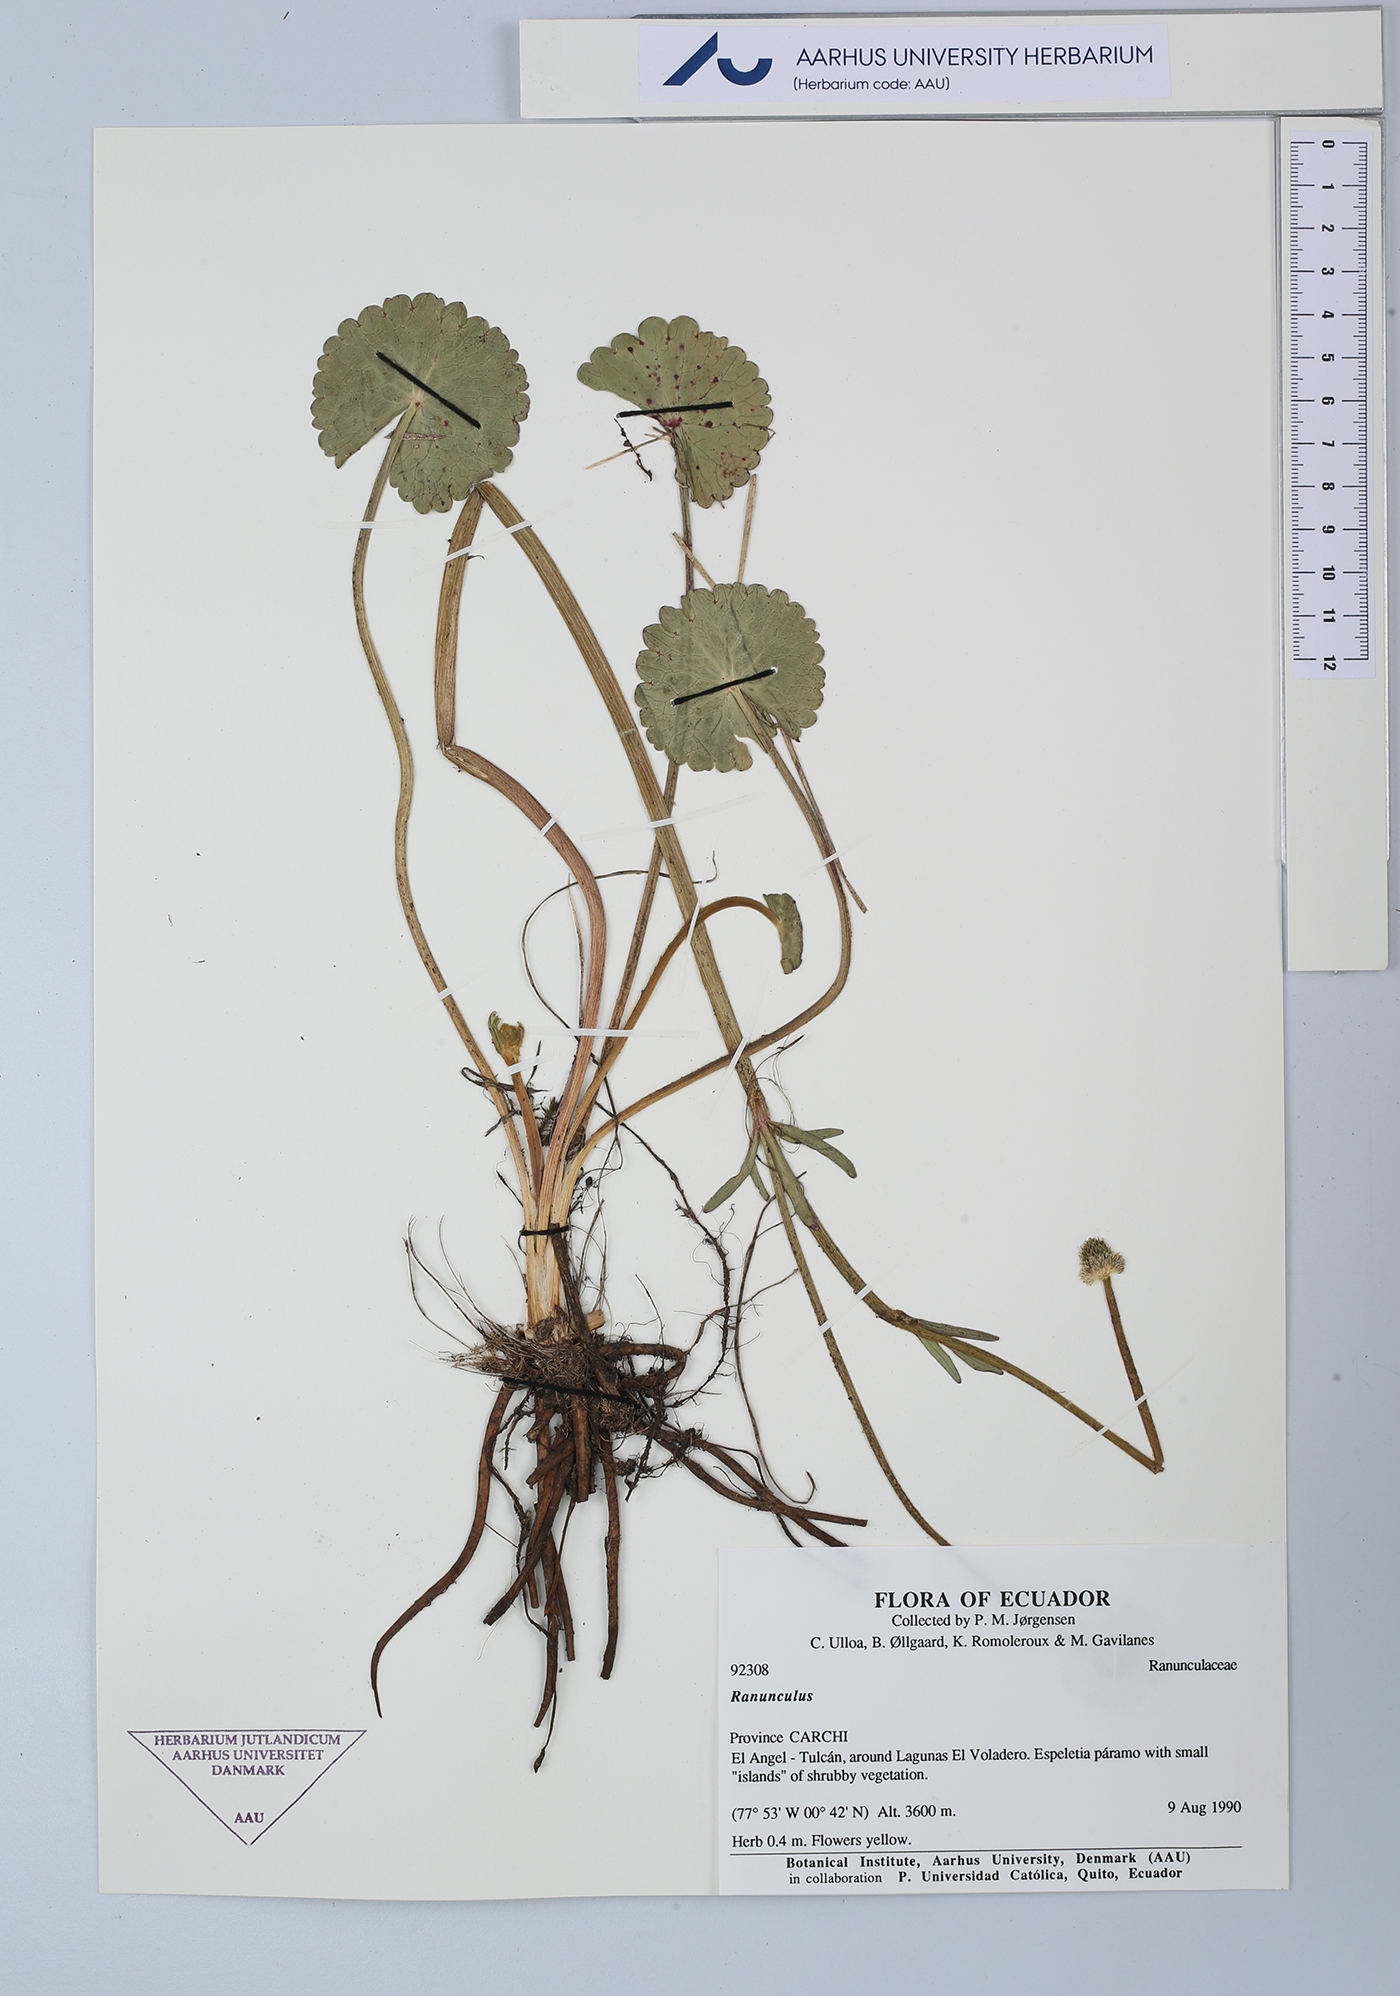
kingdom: Plantae
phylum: Tracheophyta
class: Magnoliopsida
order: Ranunculales
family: Ranunculaceae
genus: Ranunculus
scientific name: Ranunculus
